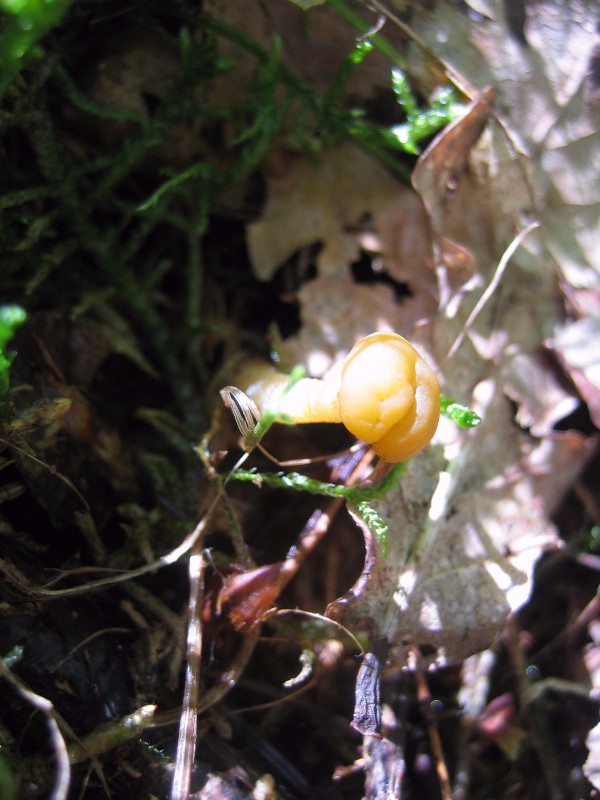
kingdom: Fungi
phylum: Ascomycota
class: Leotiomycetes
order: Leotiales
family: Leotiaceae
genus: Leotia
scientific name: Leotia
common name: ravsvamp
